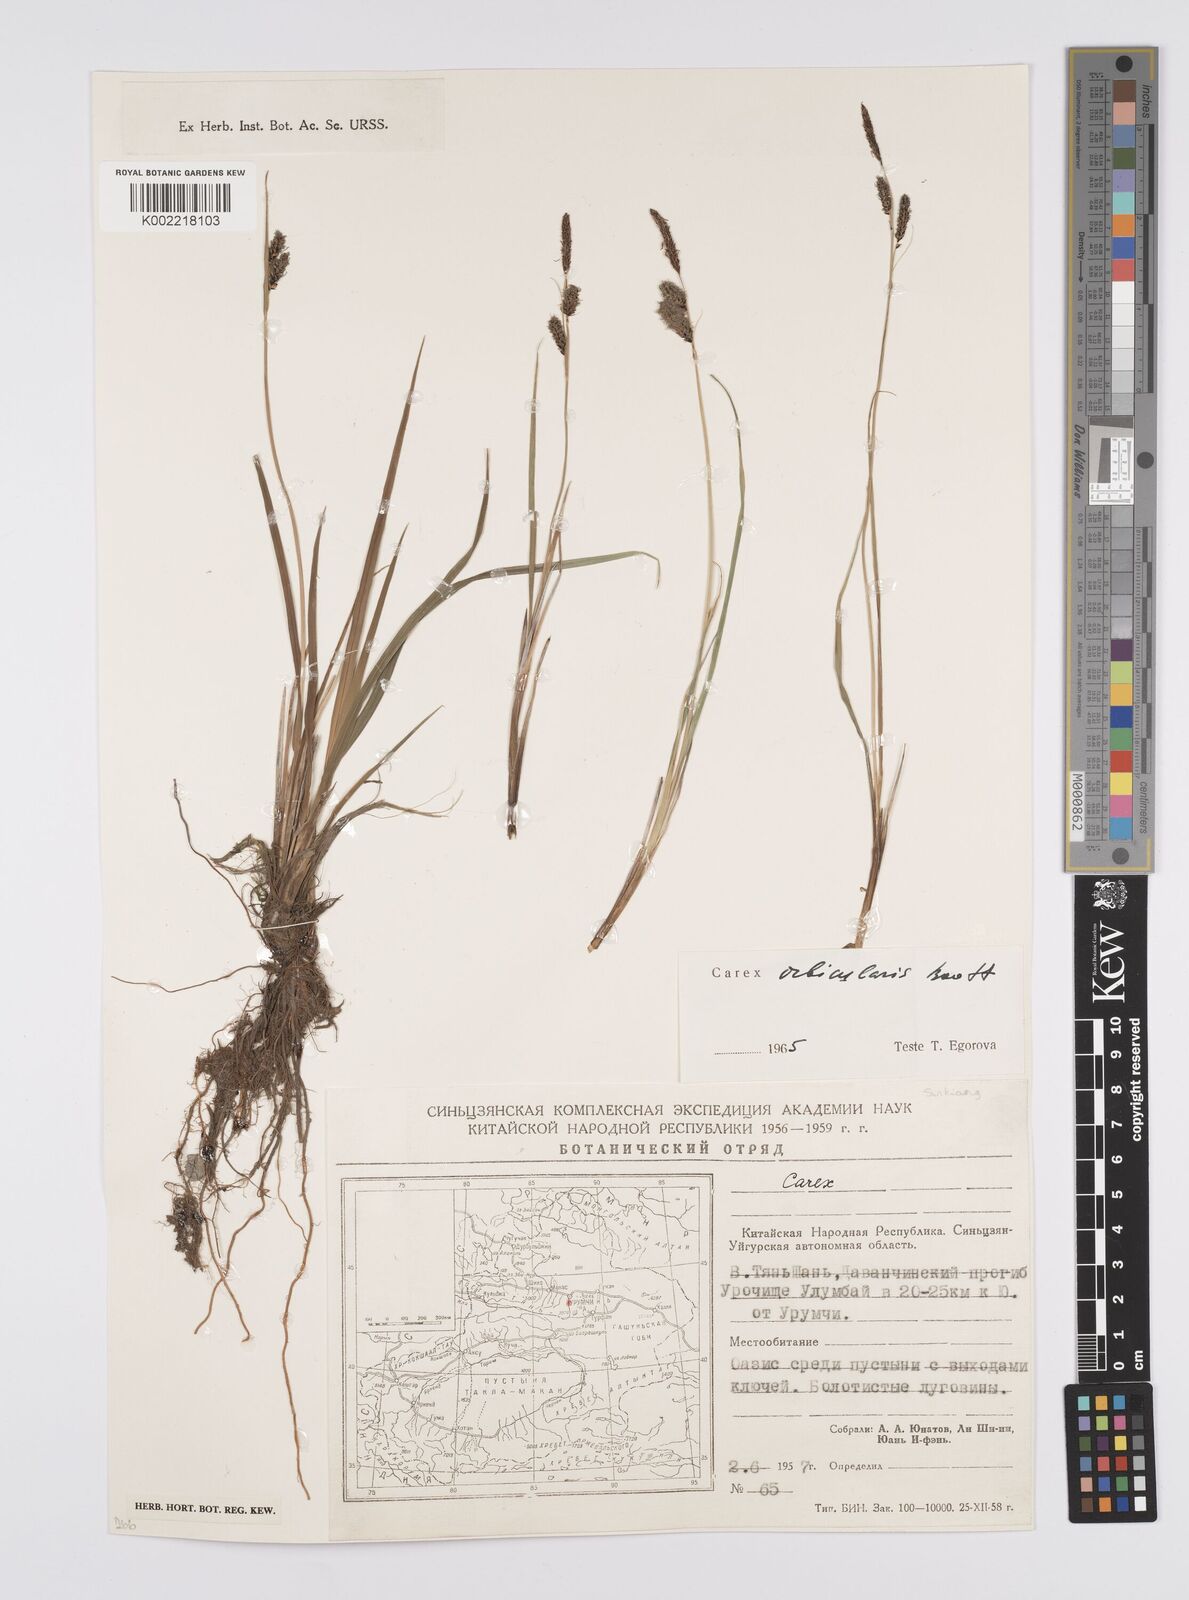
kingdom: Plantae
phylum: Tracheophyta
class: Liliopsida
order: Poales
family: Cyperaceae
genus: Carex
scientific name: Carex orbicularis
